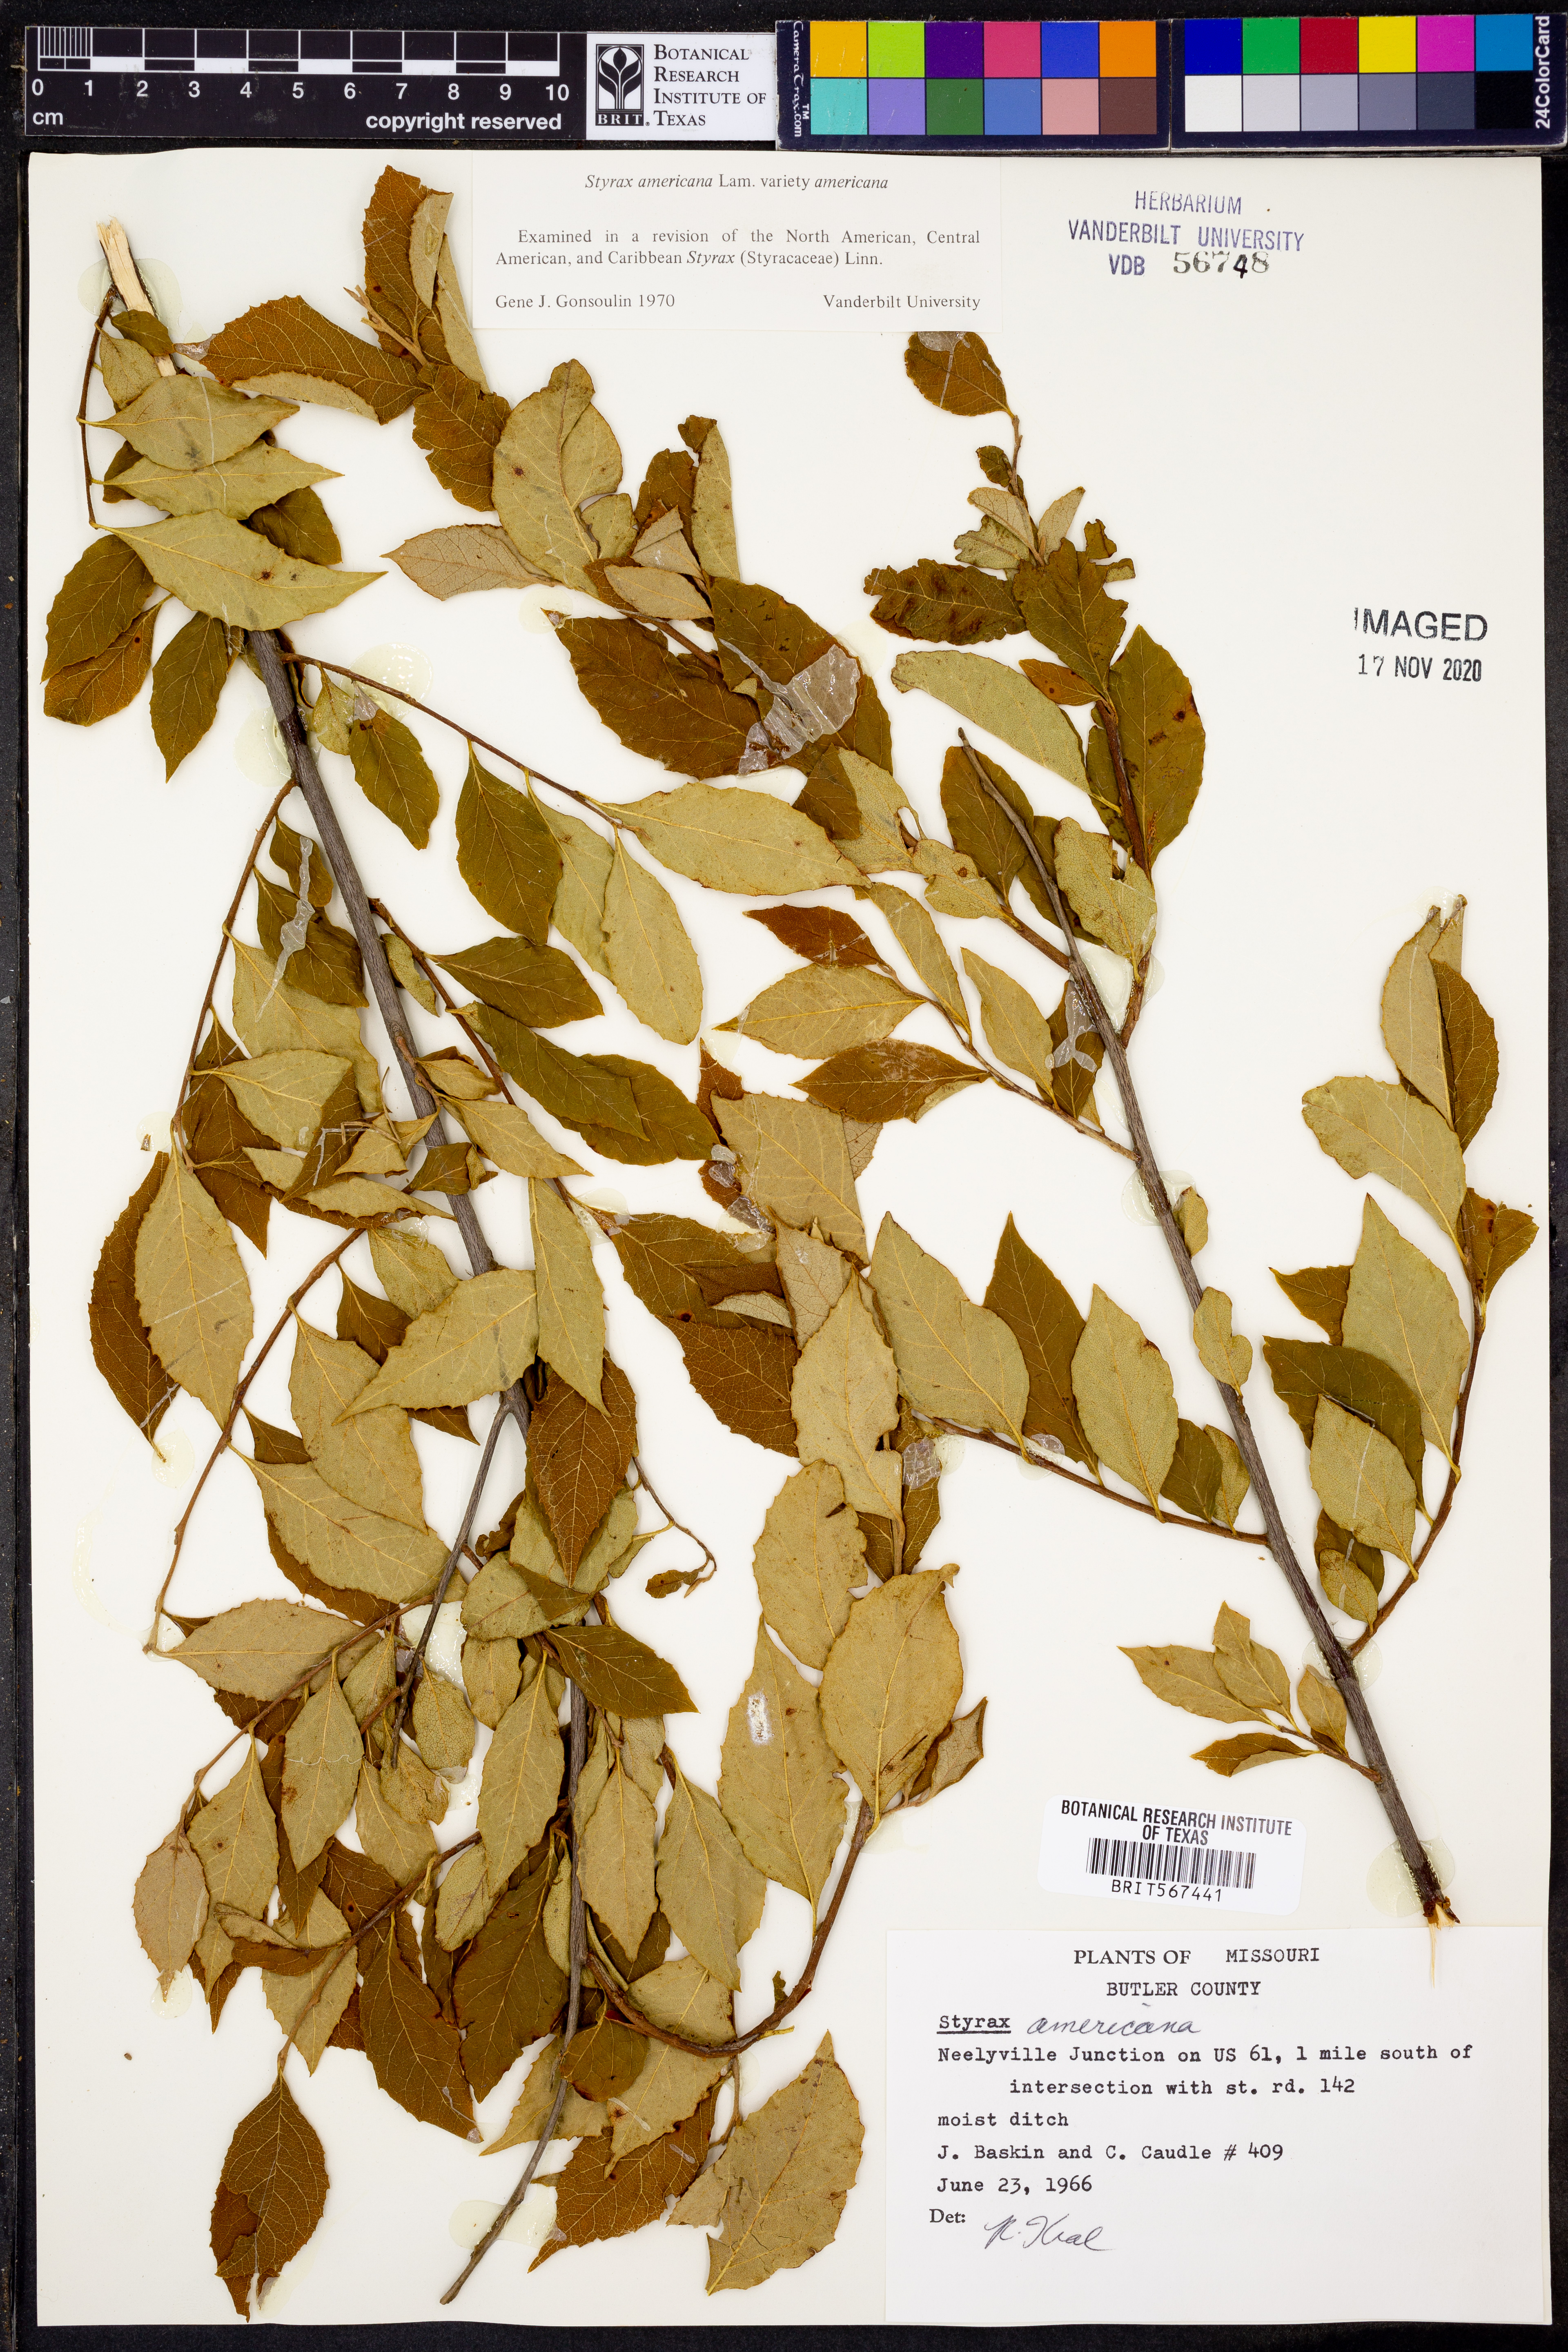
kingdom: Plantae
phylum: Tracheophyta
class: Magnoliopsida
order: Ericales
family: Styracaceae
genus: Styrax
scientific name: Styrax americanus
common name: American snowbell
